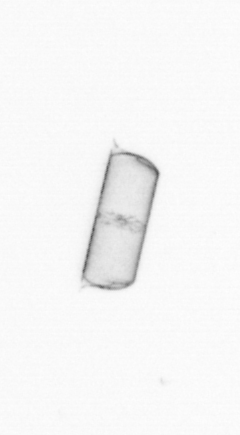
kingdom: Chromista
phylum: Ochrophyta
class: Bacillariophyceae
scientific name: Bacillariophyceae
